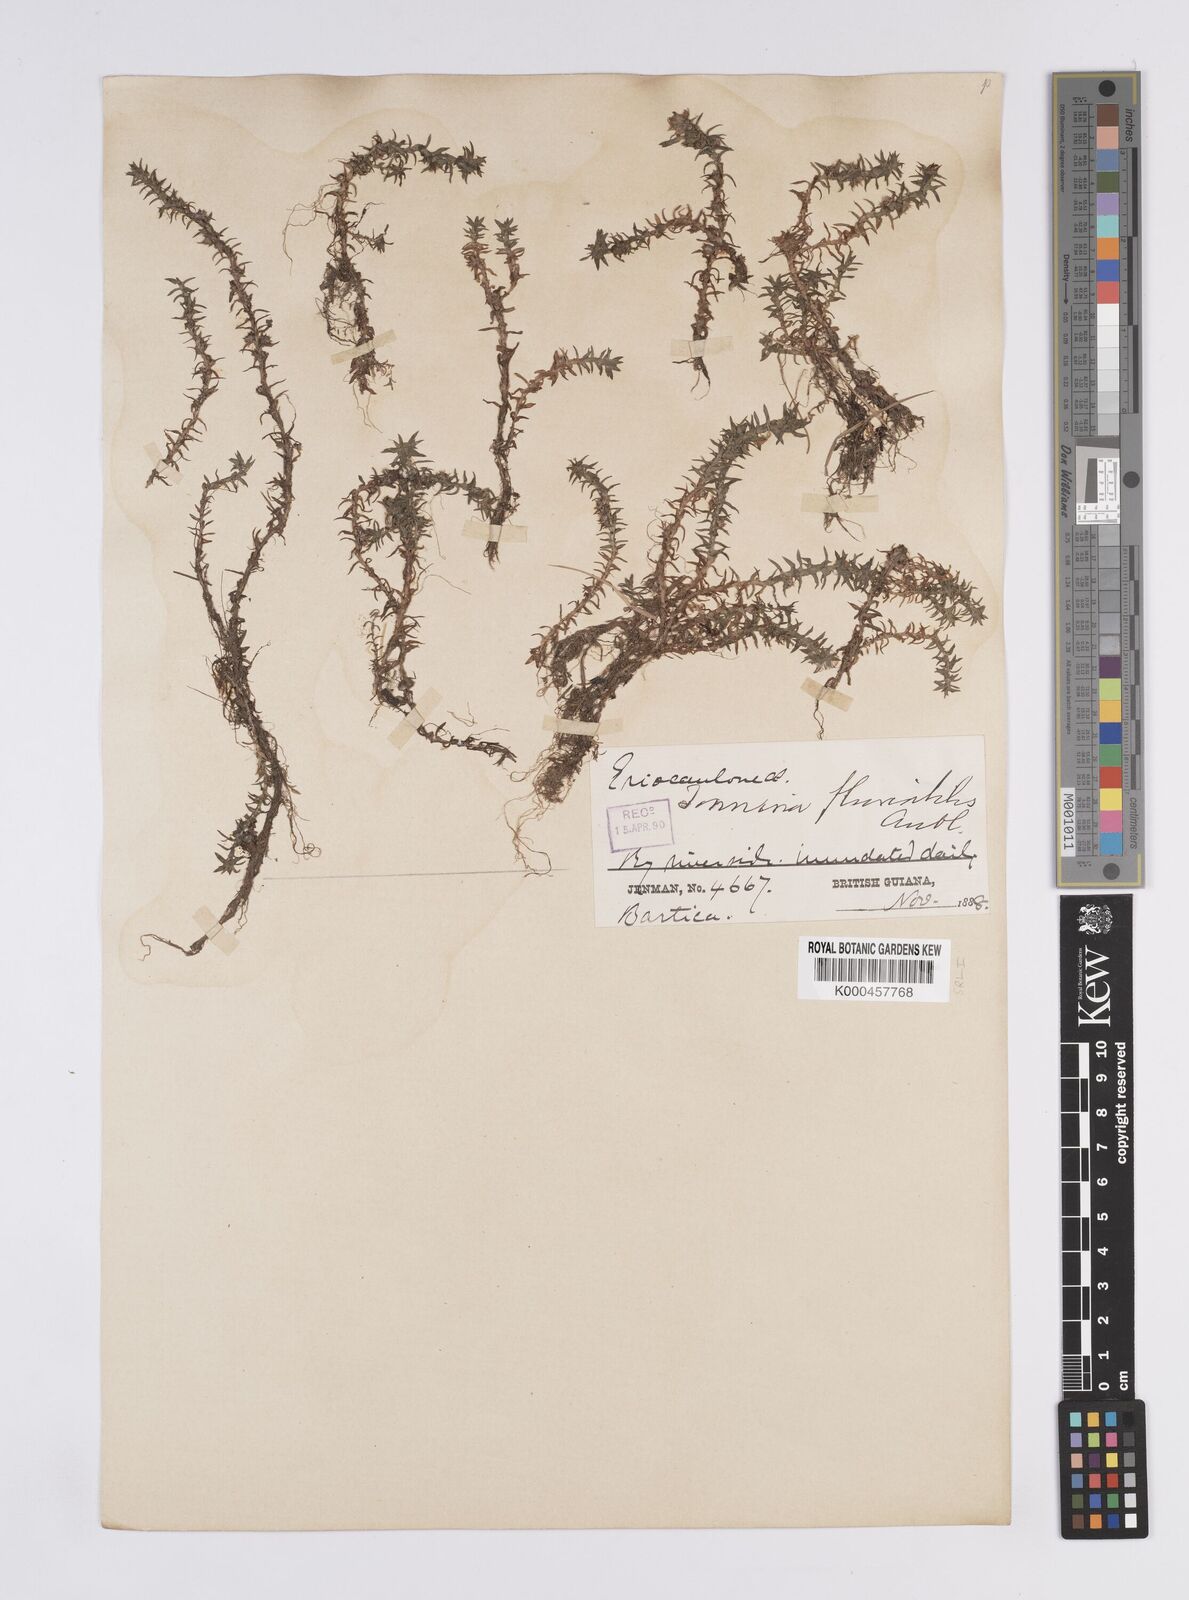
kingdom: Plantae
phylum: Tracheophyta
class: Liliopsida
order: Poales
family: Eriocaulaceae
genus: Paepalanthus
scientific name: Paepalanthus fluviatilis
